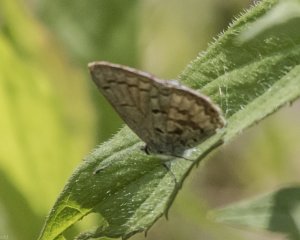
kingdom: Animalia
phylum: Arthropoda
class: Insecta
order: Lepidoptera
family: Lycaenidae
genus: Celastrina
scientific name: Celastrina lucia
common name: Northern Spring Azure
